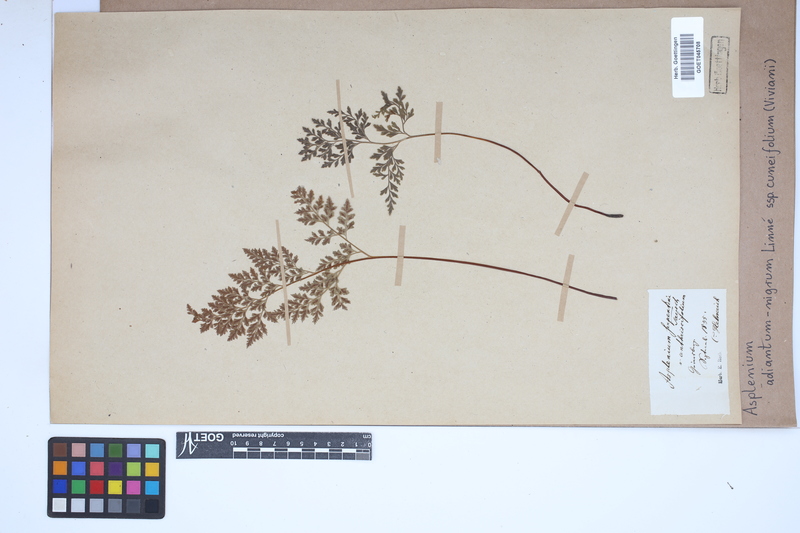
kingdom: Plantae
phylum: Tracheophyta
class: Polypodiopsida
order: Polypodiales
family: Aspleniaceae
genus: Asplenium
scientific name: Asplenium cuneifolium
